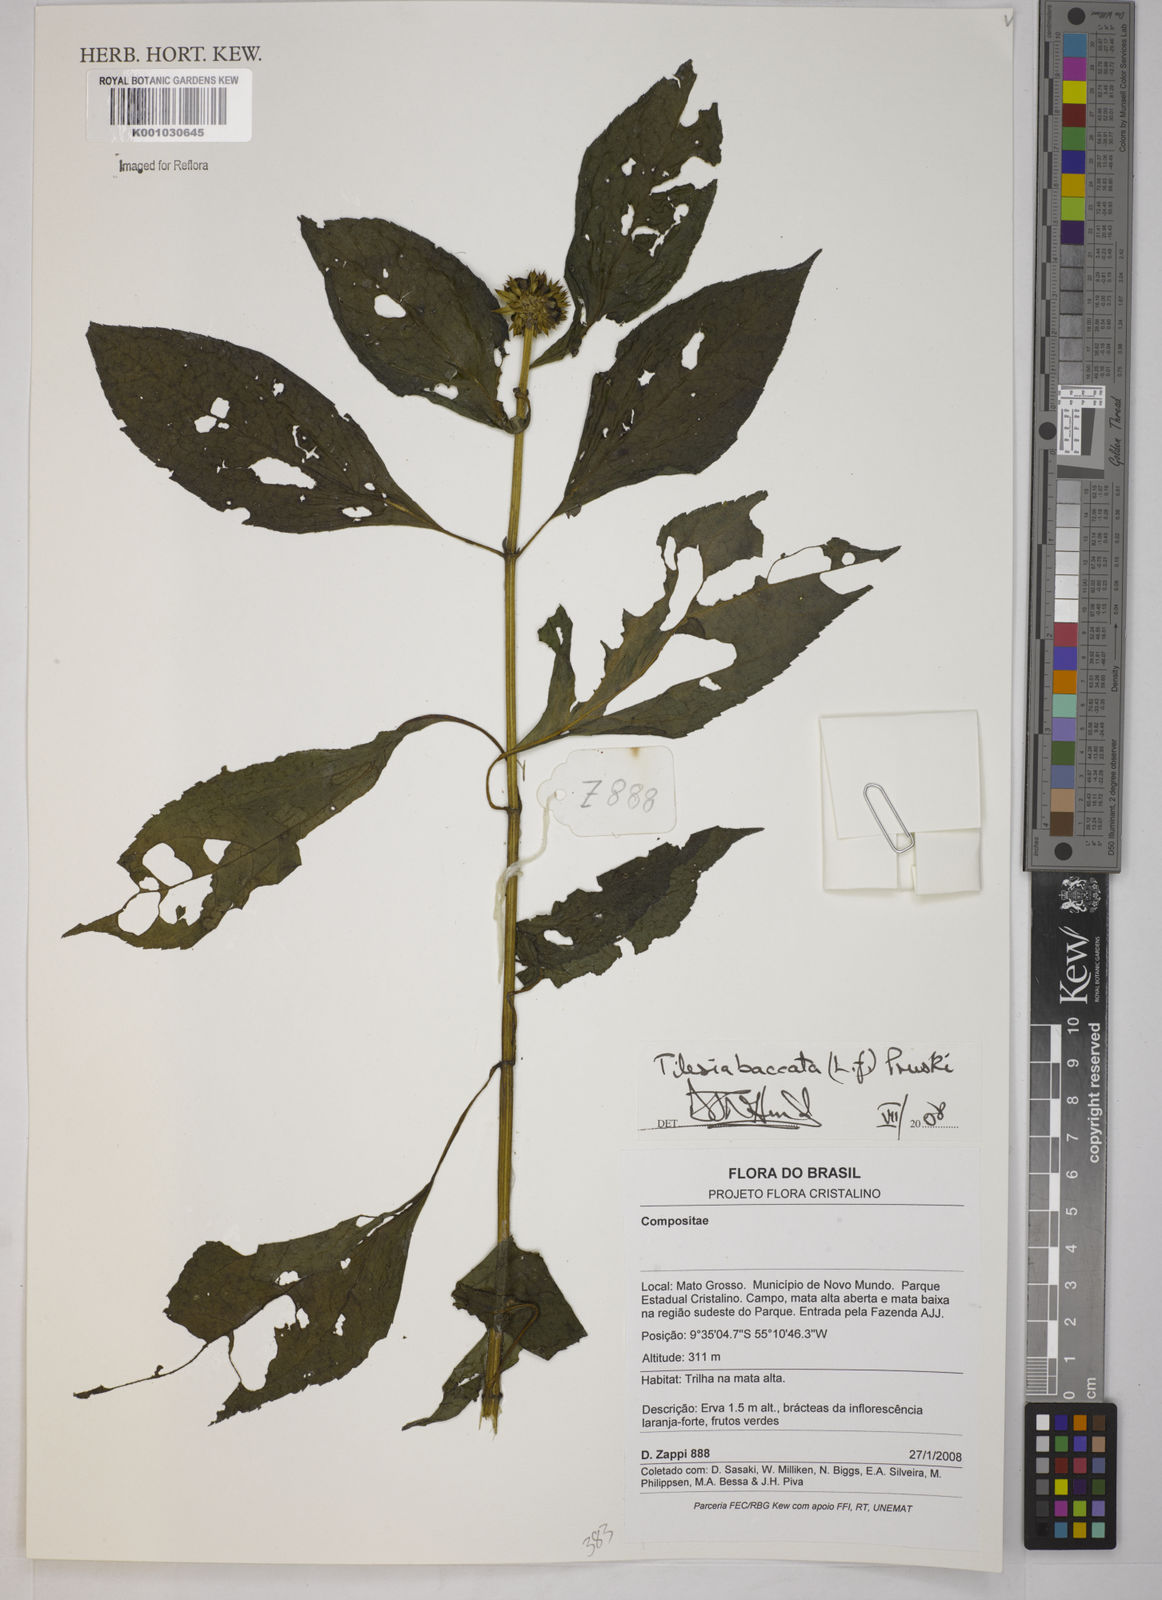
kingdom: Plantae
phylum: Tracheophyta
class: Magnoliopsida
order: Asterales
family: Asteraceae
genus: Tilesia
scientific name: Tilesia baccata
